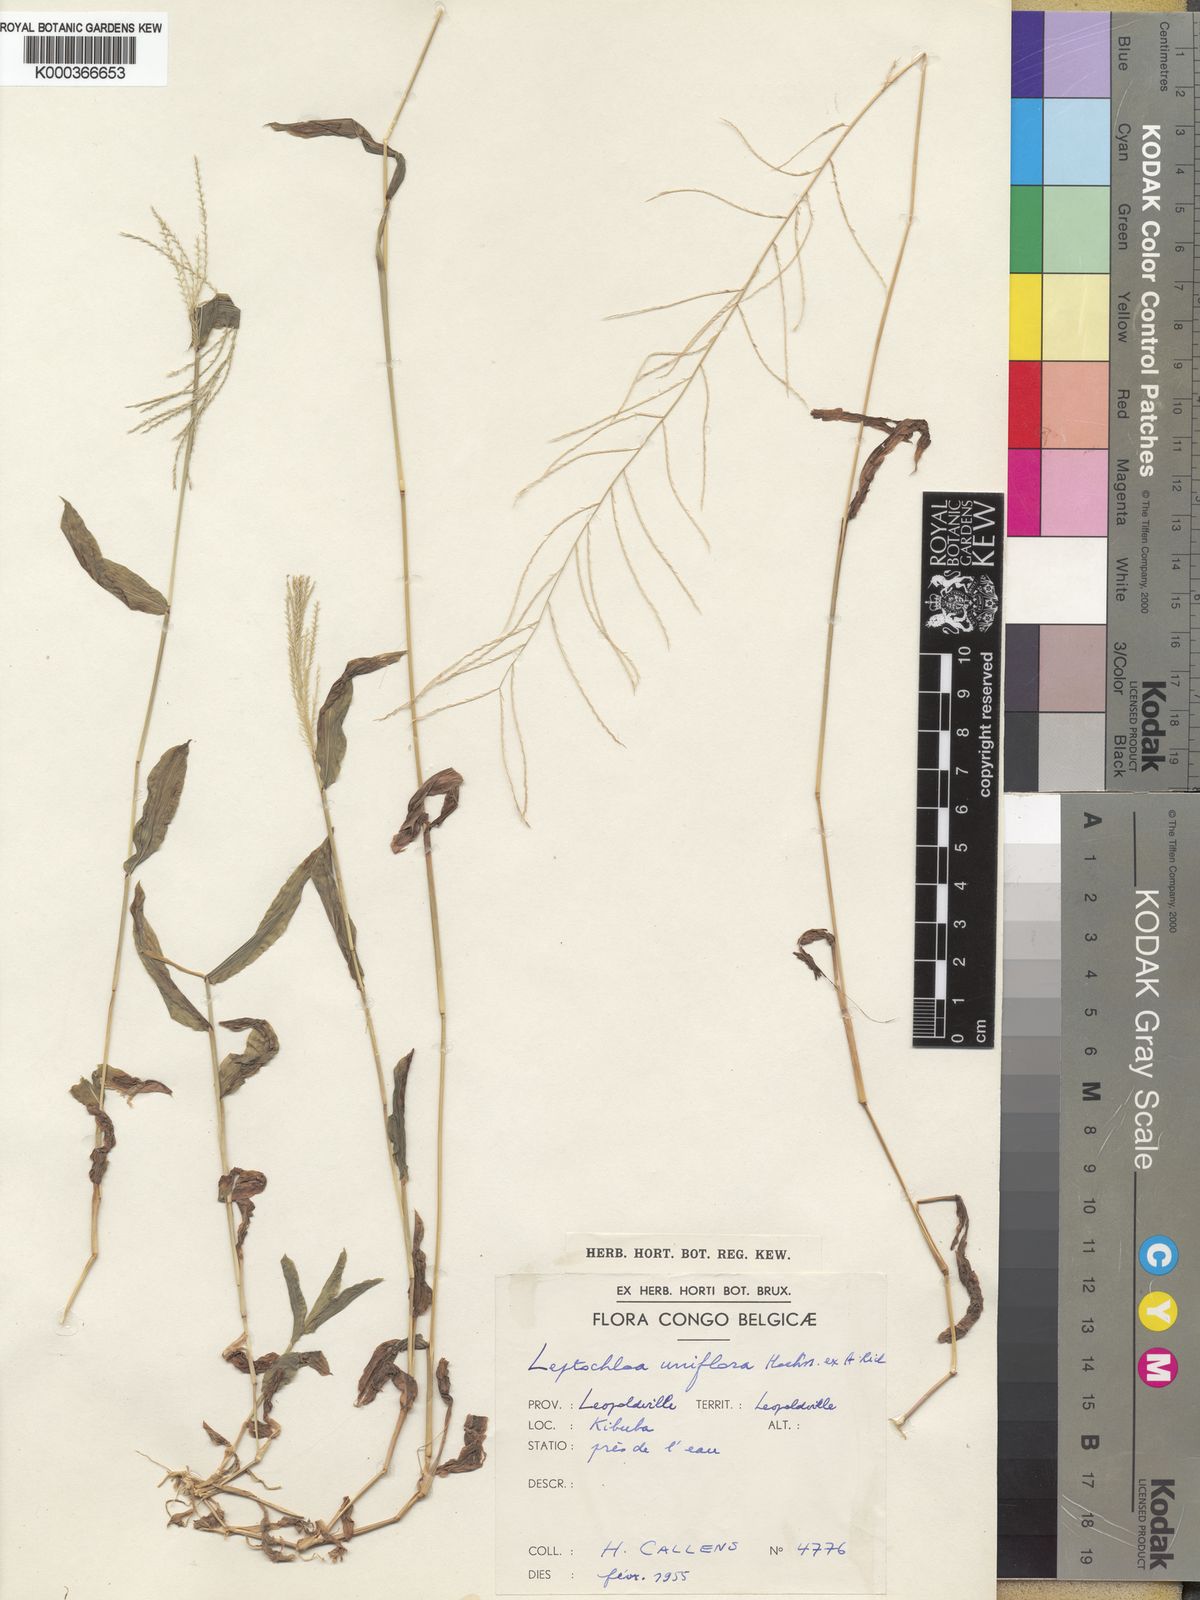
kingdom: Plantae
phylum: Tracheophyta
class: Liliopsida
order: Poales
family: Poaceae
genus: Trigonochloa
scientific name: Trigonochloa uniflora
